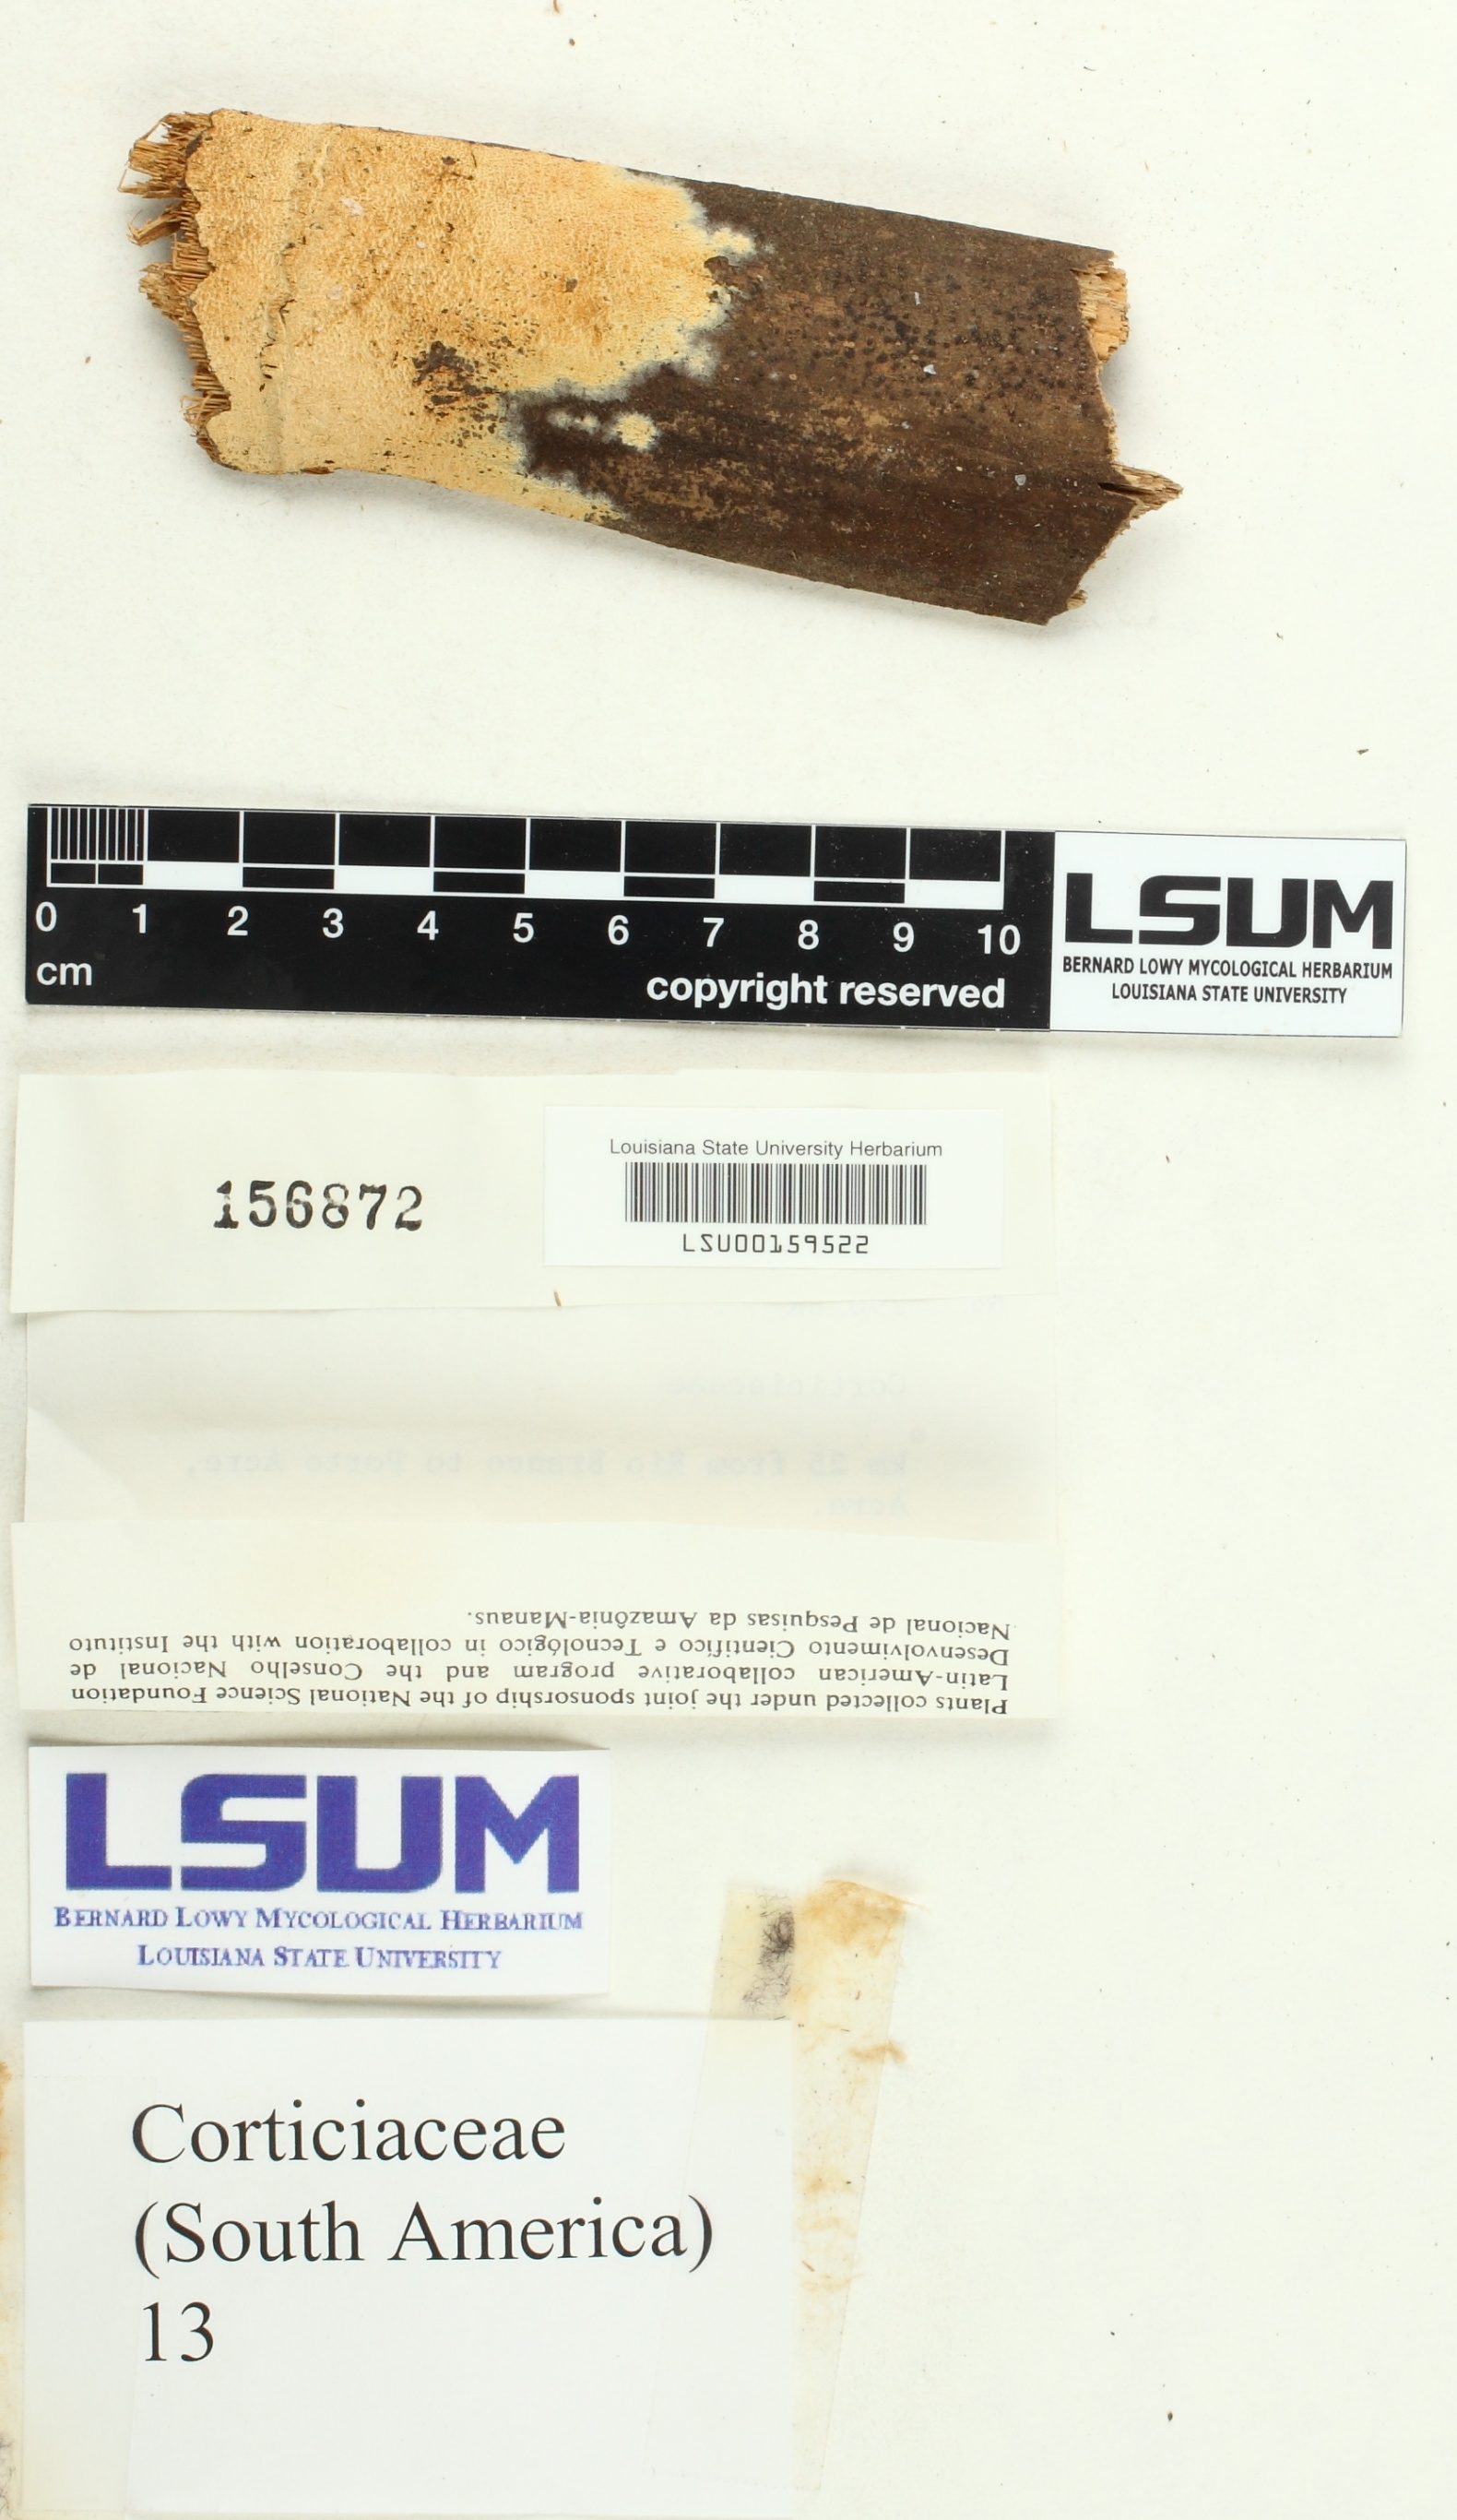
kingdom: Fungi
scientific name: Fungi
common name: Fungi
